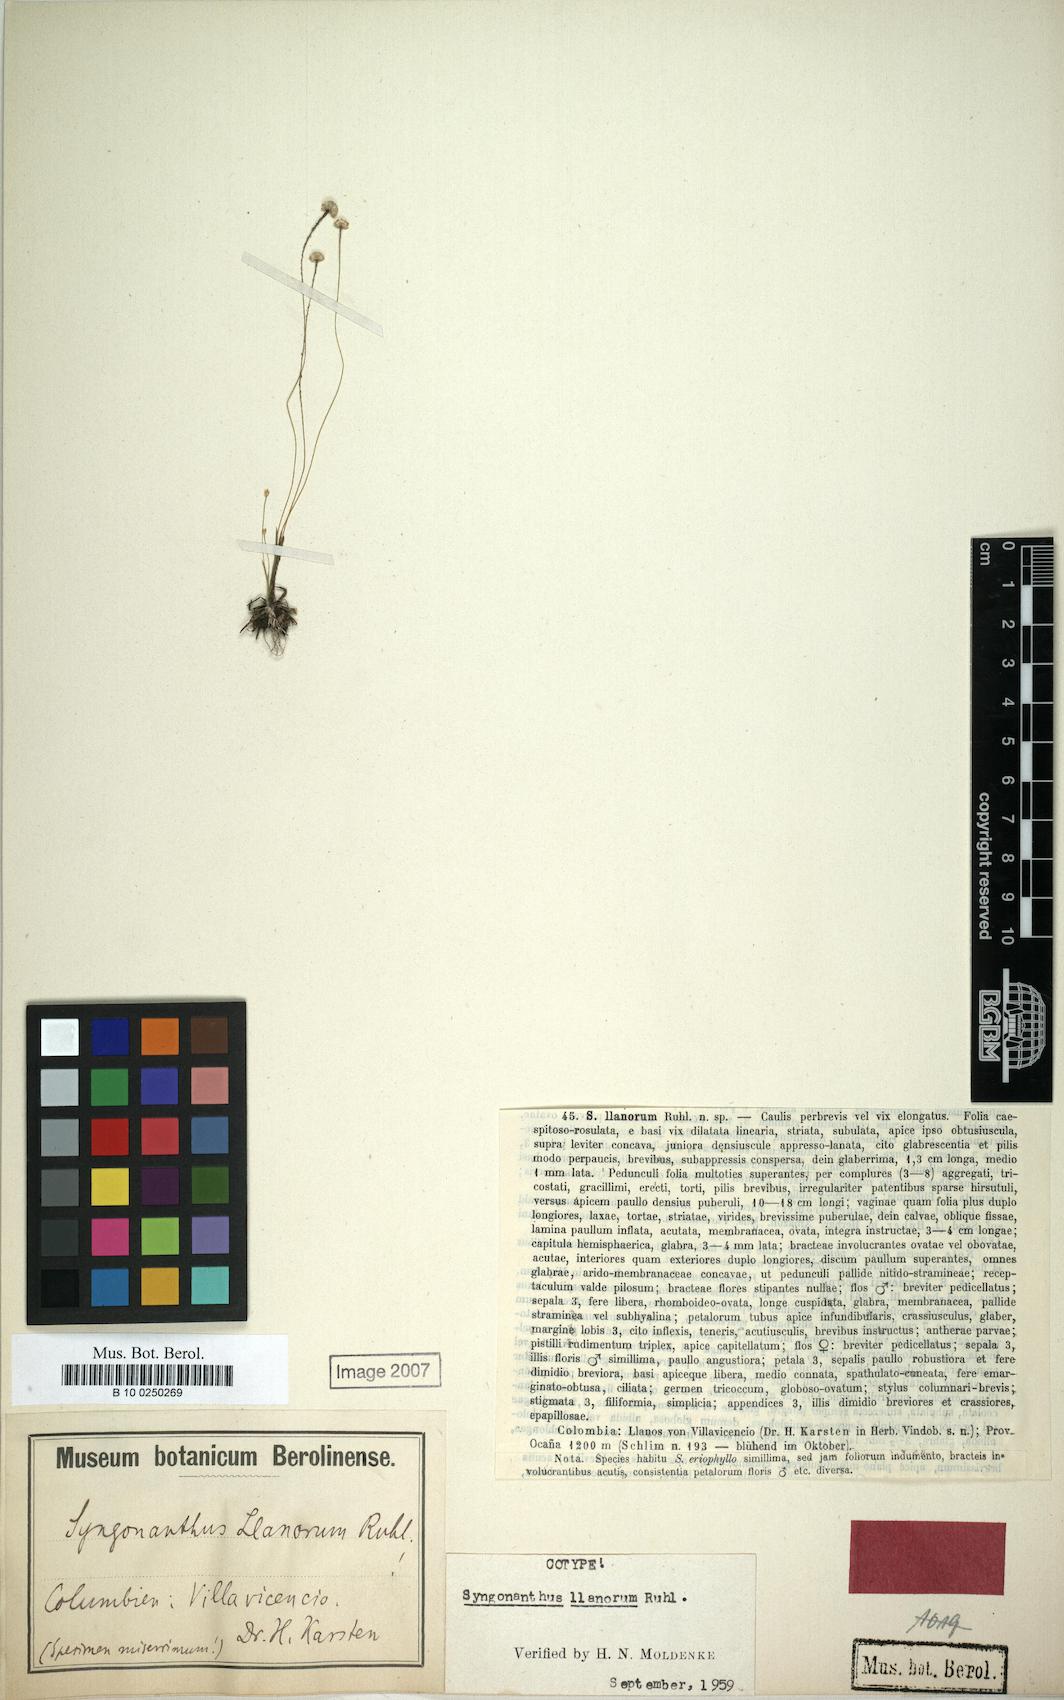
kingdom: Plantae
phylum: Tracheophyta
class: Liliopsida
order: Poales
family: Eriocaulaceae
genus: Syngonanthus
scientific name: Syngonanthus llanorum
